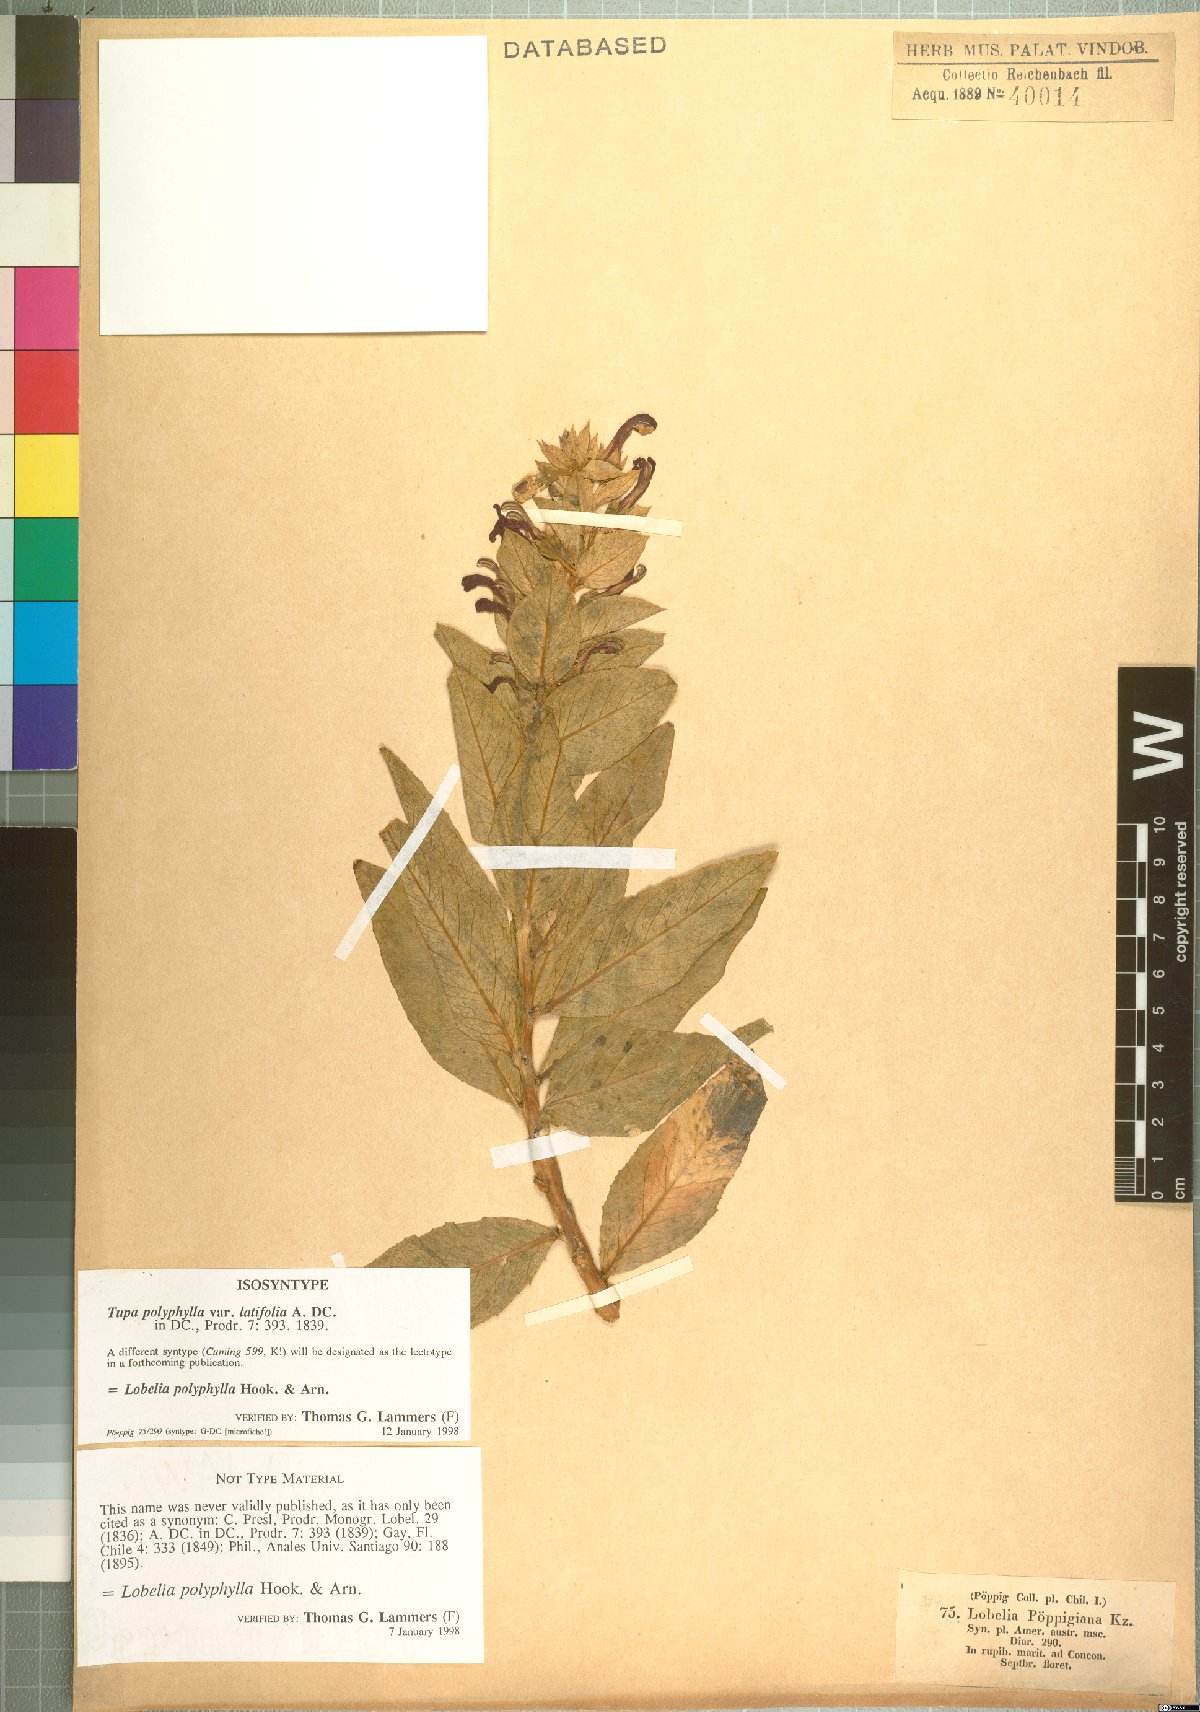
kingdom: Plantae
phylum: Tracheophyta
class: Magnoliopsida
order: Asterales
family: Campanulaceae
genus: Lobelia
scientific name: Lobelia polyphylla
